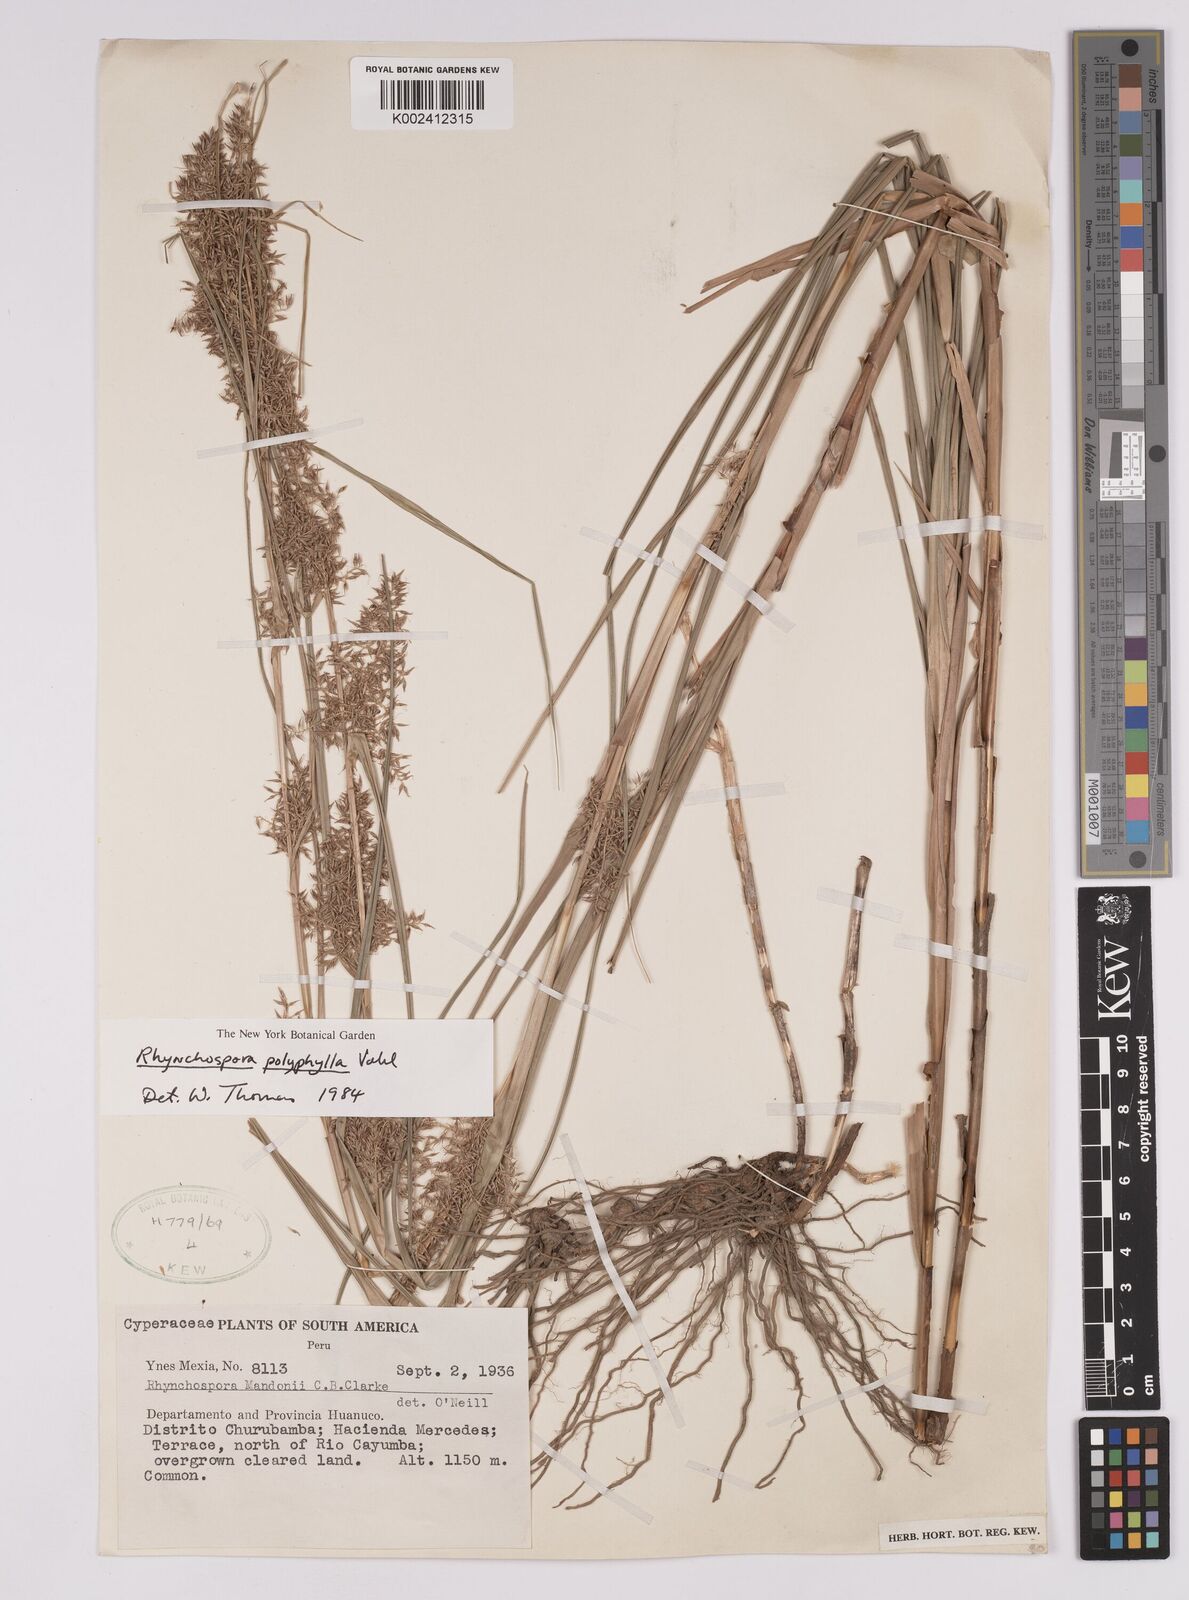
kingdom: Plantae
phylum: Tracheophyta
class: Liliopsida
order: Poales
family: Cyperaceae
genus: Rhynchospora
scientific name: Rhynchospora polyphylla
